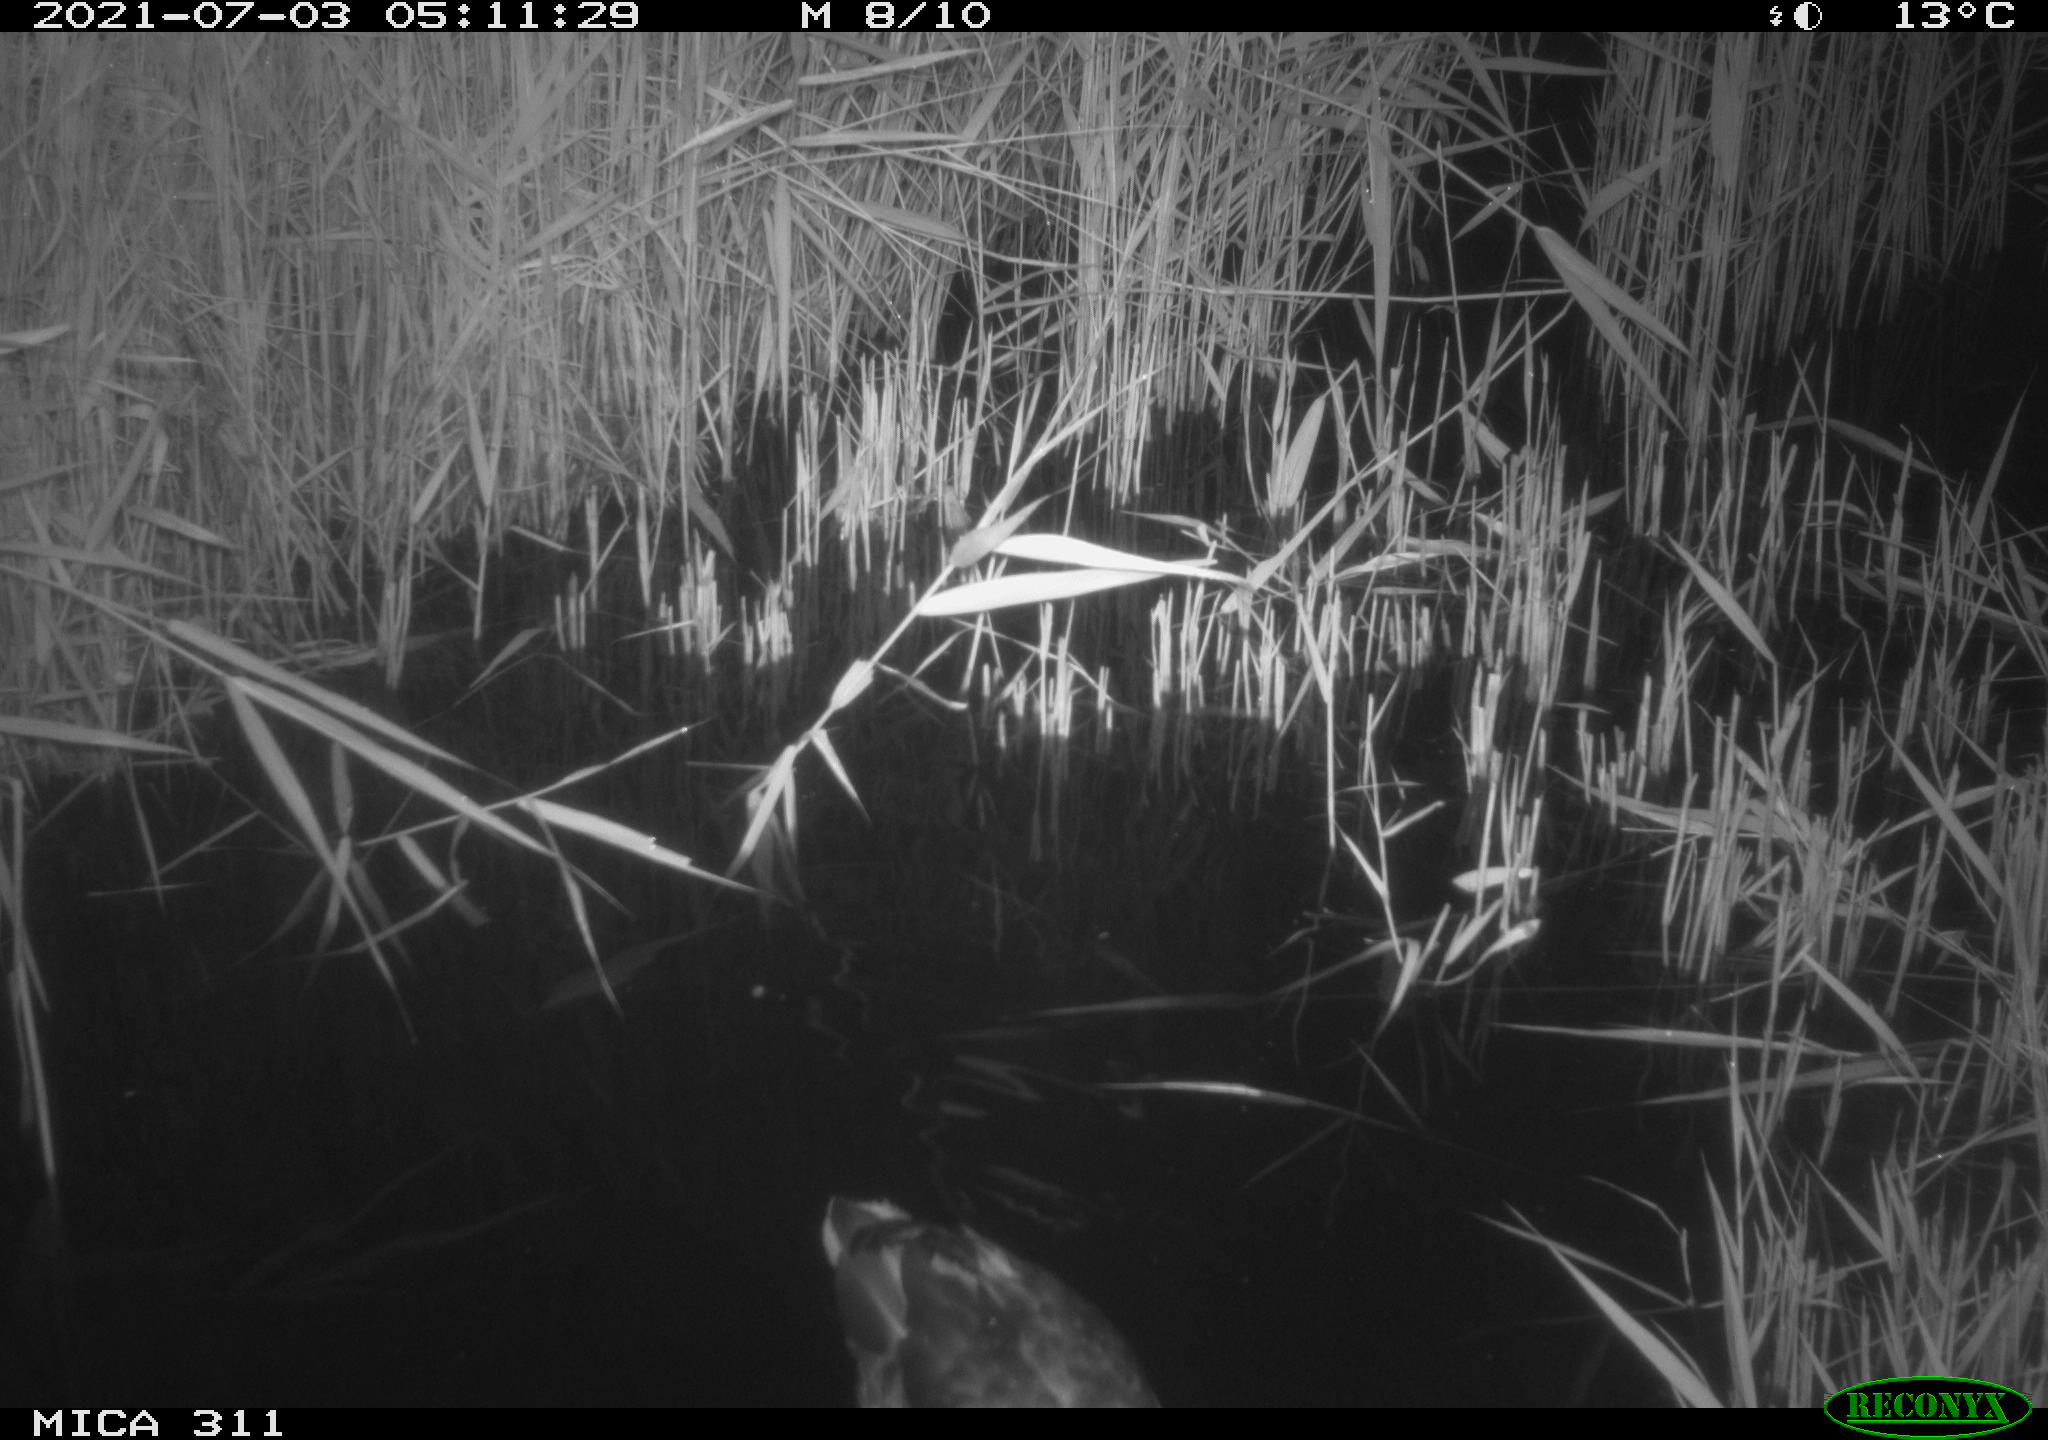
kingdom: Animalia
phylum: Chordata
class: Aves
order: Anseriformes
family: Anatidae
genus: Anas
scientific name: Anas
